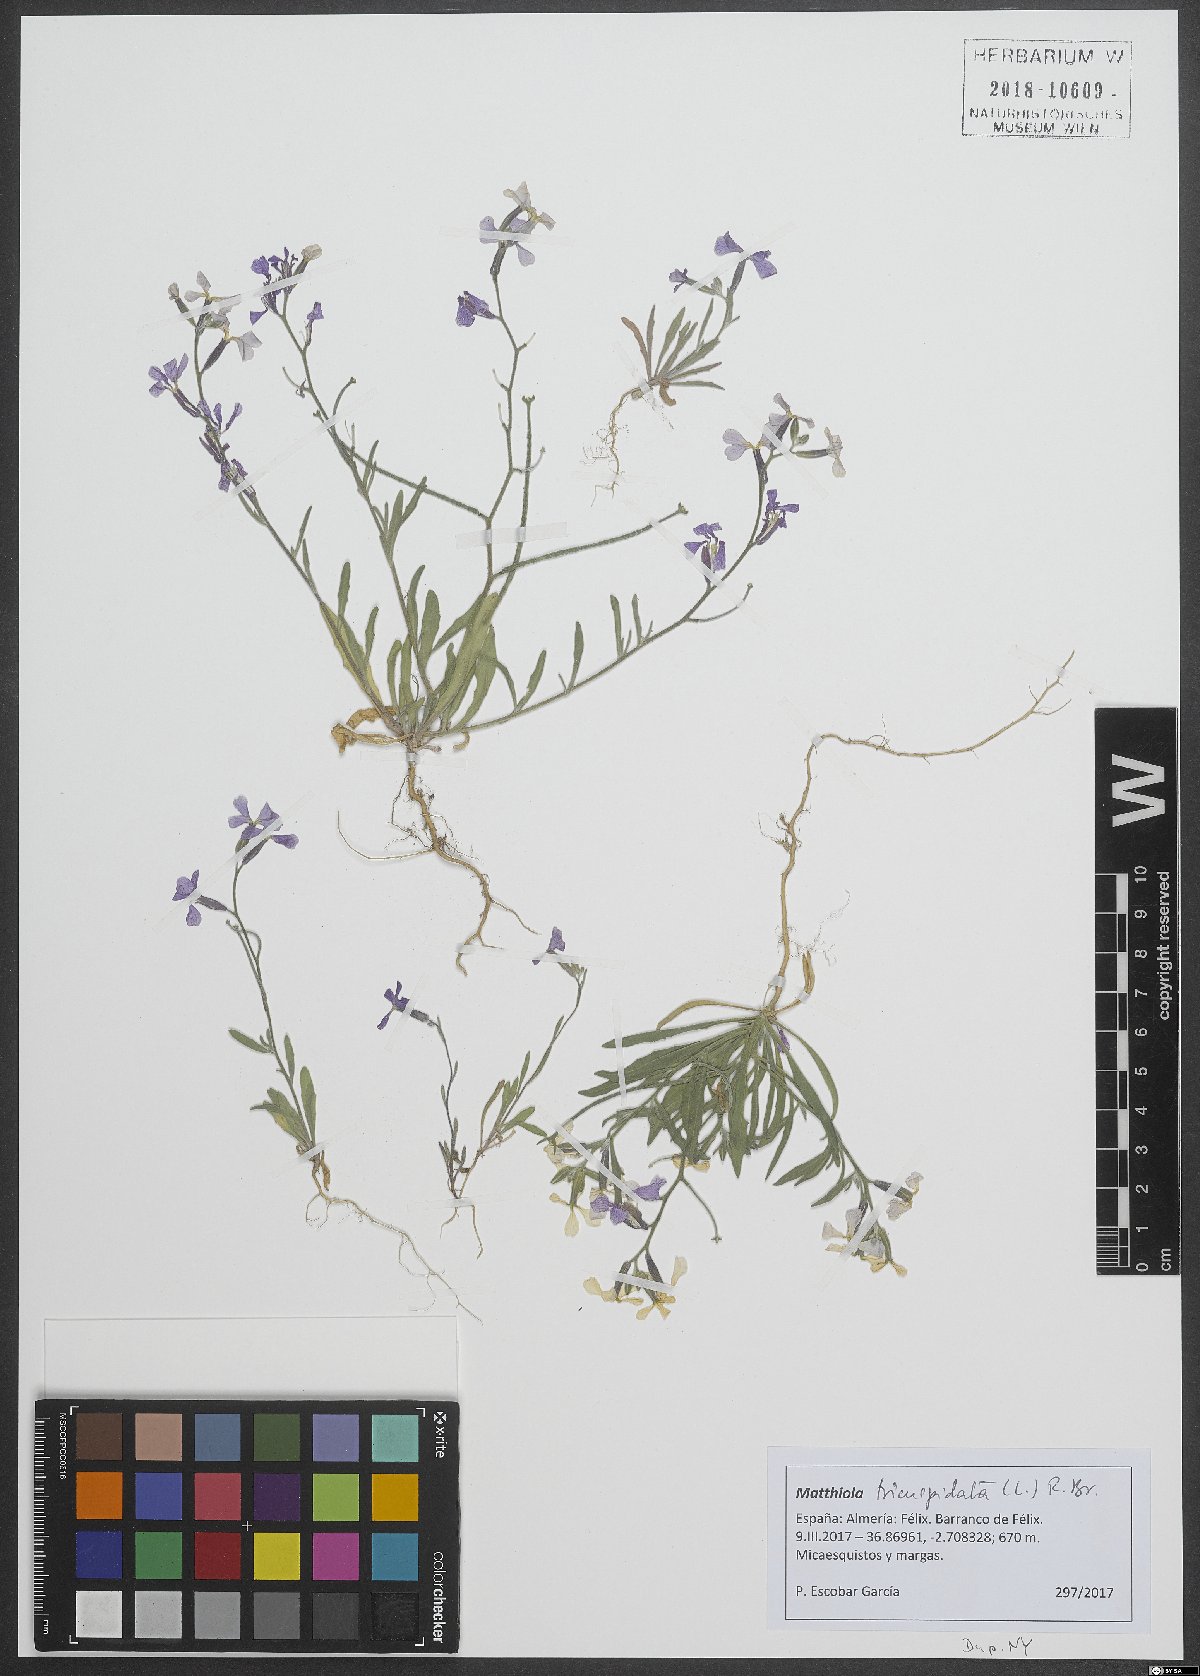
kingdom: Plantae
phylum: Tracheophyta
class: Magnoliopsida
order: Brassicales
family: Brassicaceae
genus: Matthiola
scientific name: Matthiola tricuspidata
